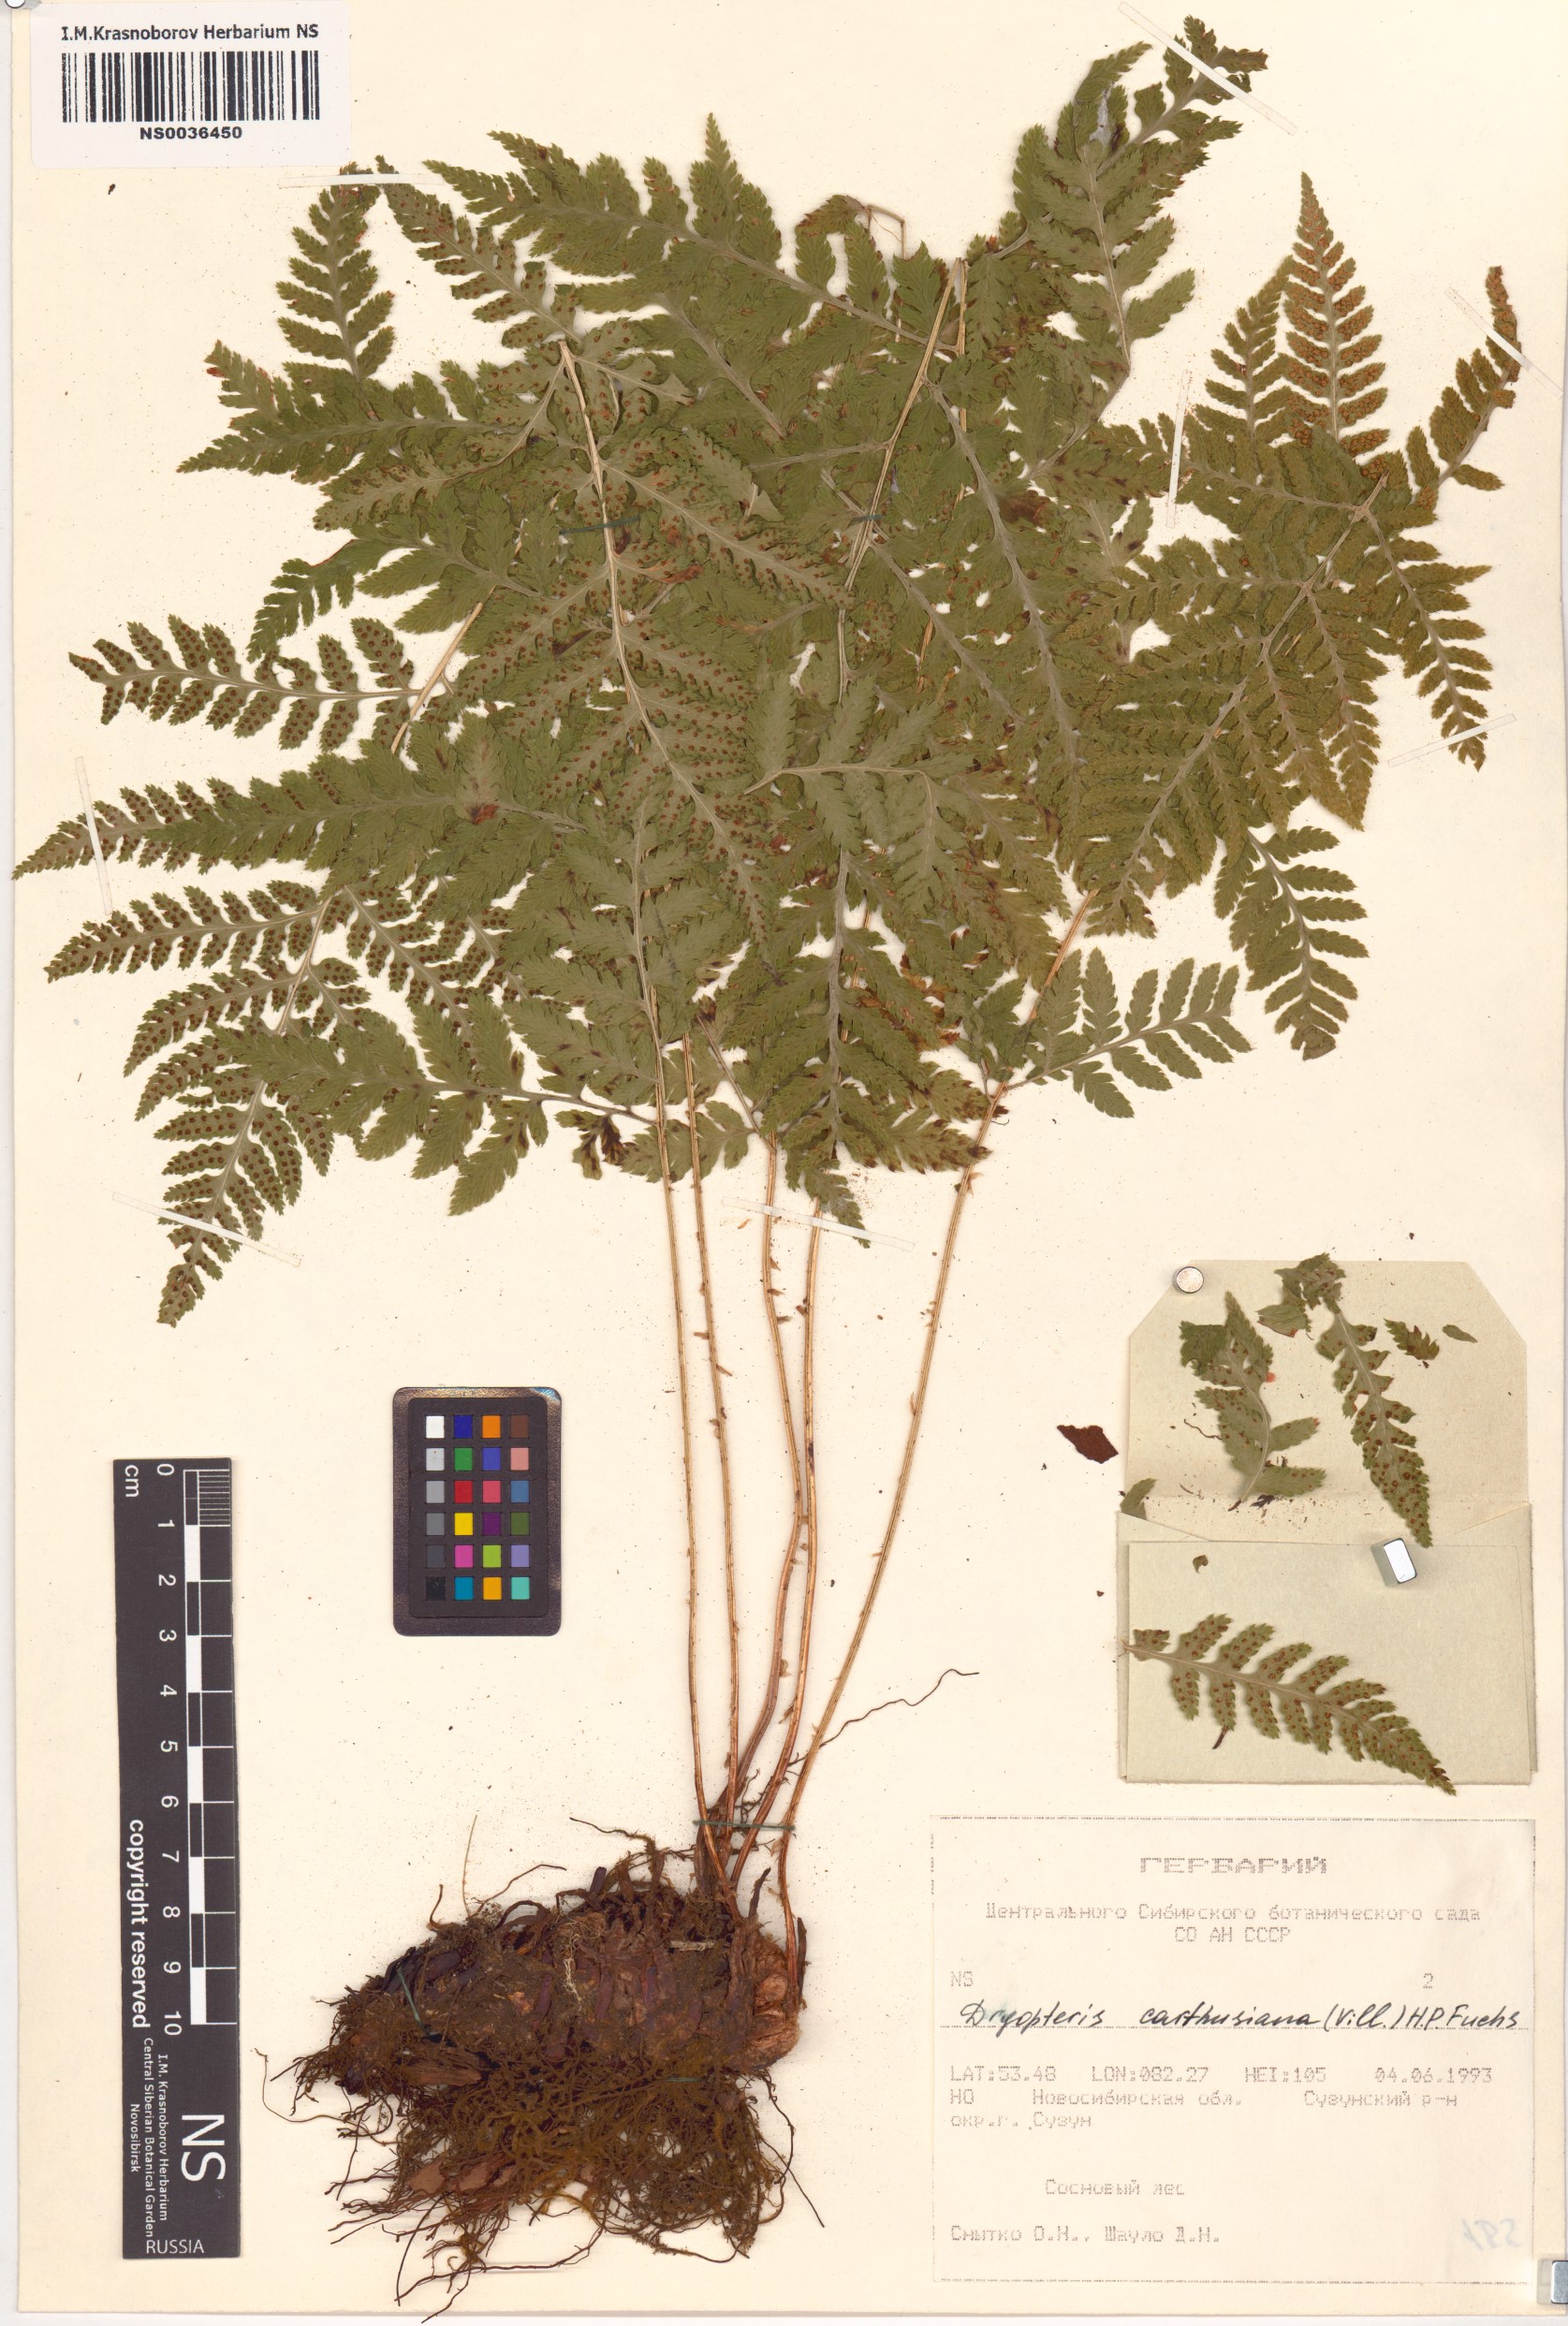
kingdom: Plantae
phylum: Tracheophyta
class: Polypodiopsida
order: Polypodiales
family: Dryopteridaceae
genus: Dryopteris
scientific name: Dryopteris carthusiana
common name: Narrow buckler-fern
